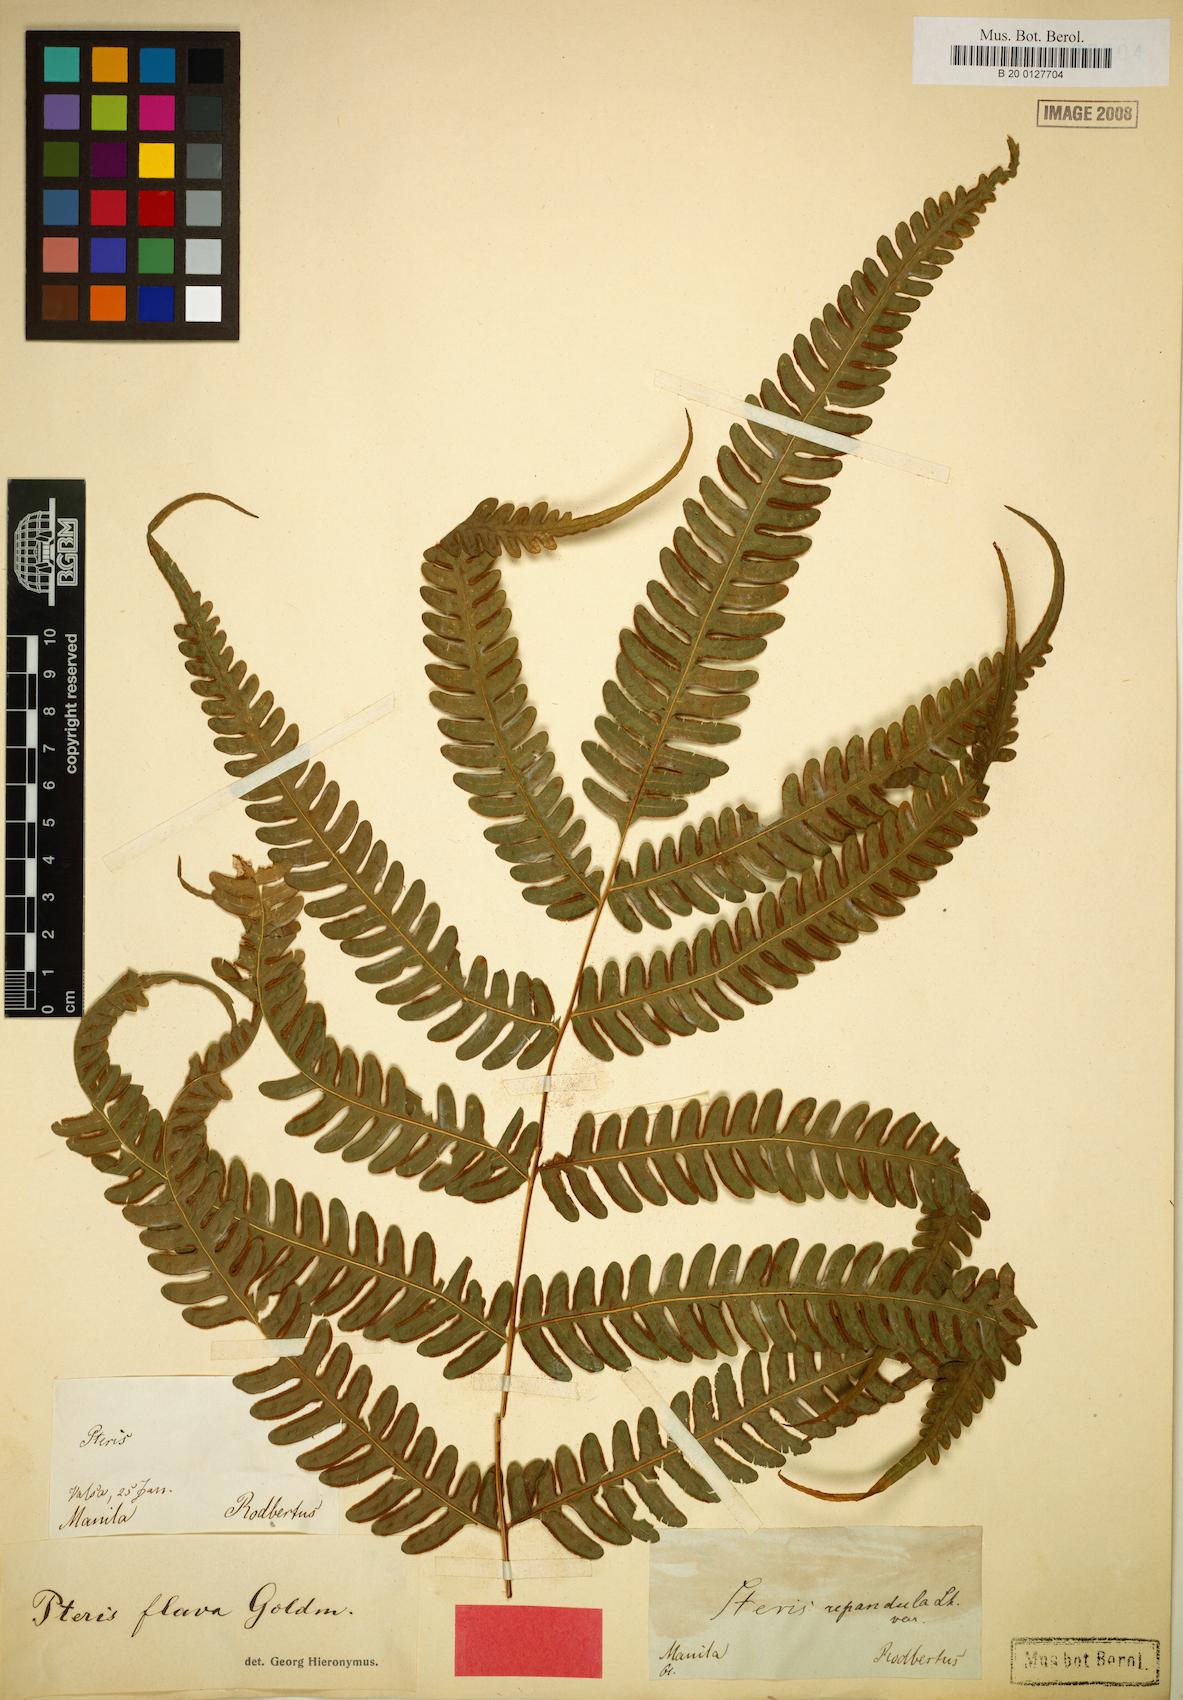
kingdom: Plantae
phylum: Tracheophyta
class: Polypodiopsida
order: Polypodiales
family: Pteridaceae
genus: Pteris
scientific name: Pteris glaucovirens
